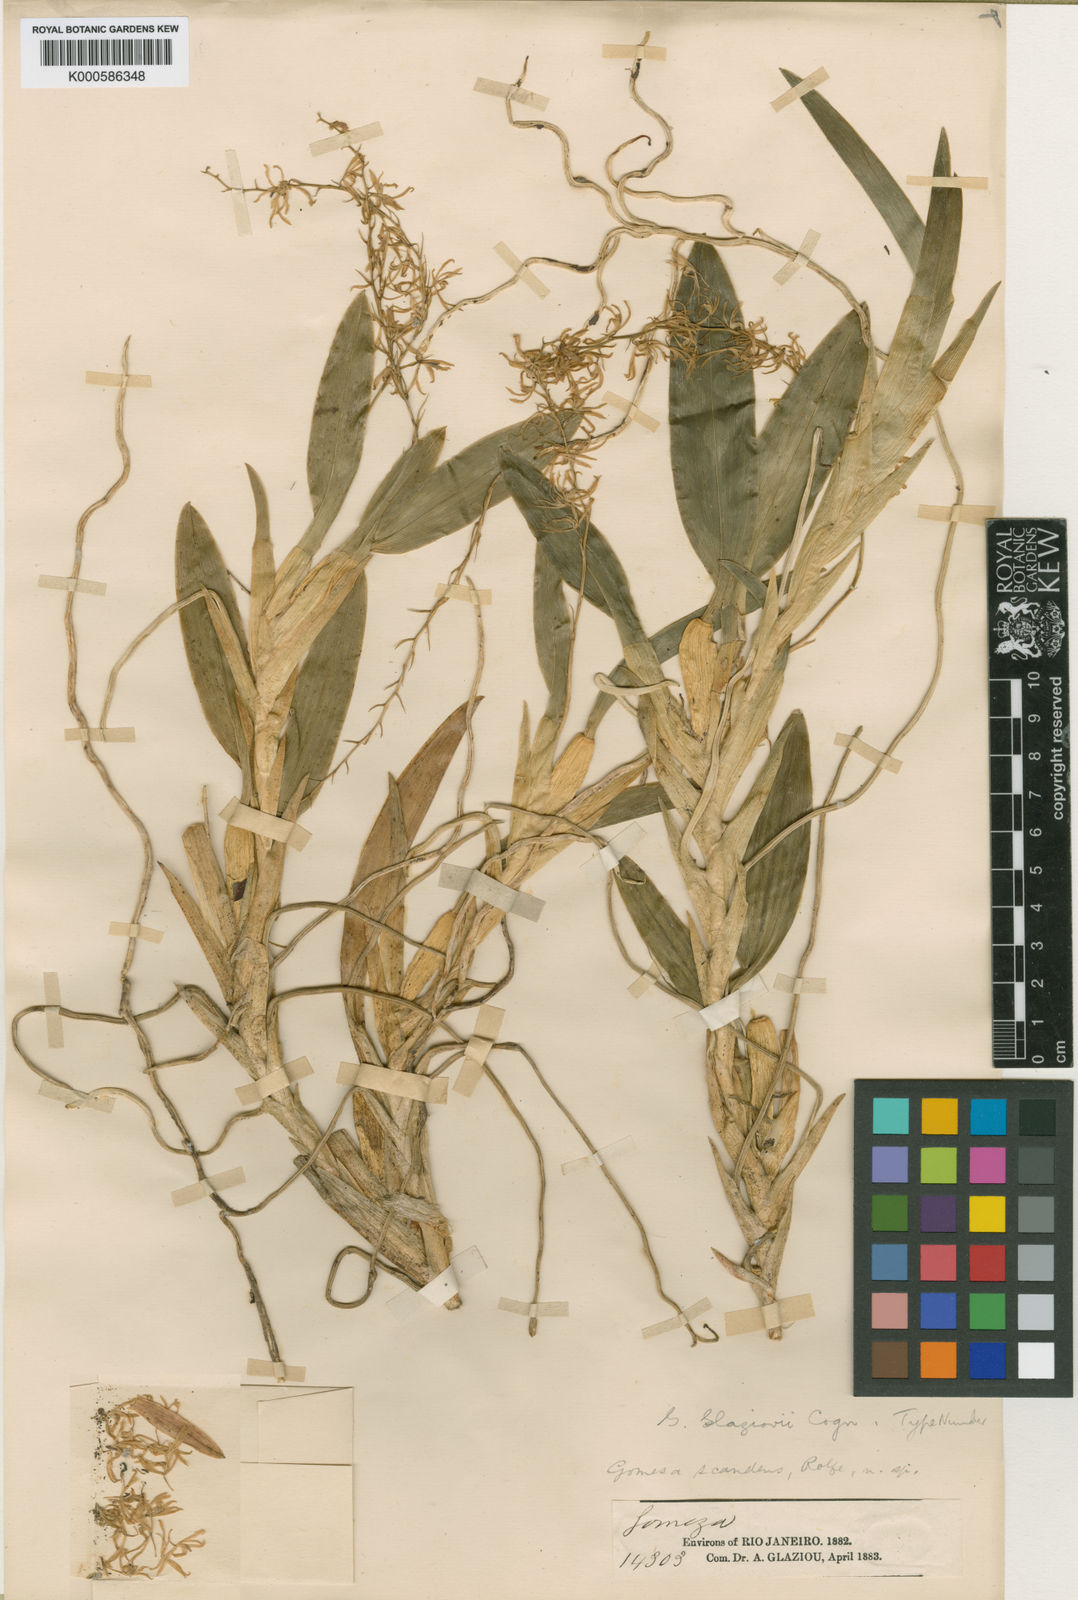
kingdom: Plantae
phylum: Tracheophyta
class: Liliopsida
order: Asparagales
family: Orchidaceae
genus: Gomesa
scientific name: Gomesa glaziovii
